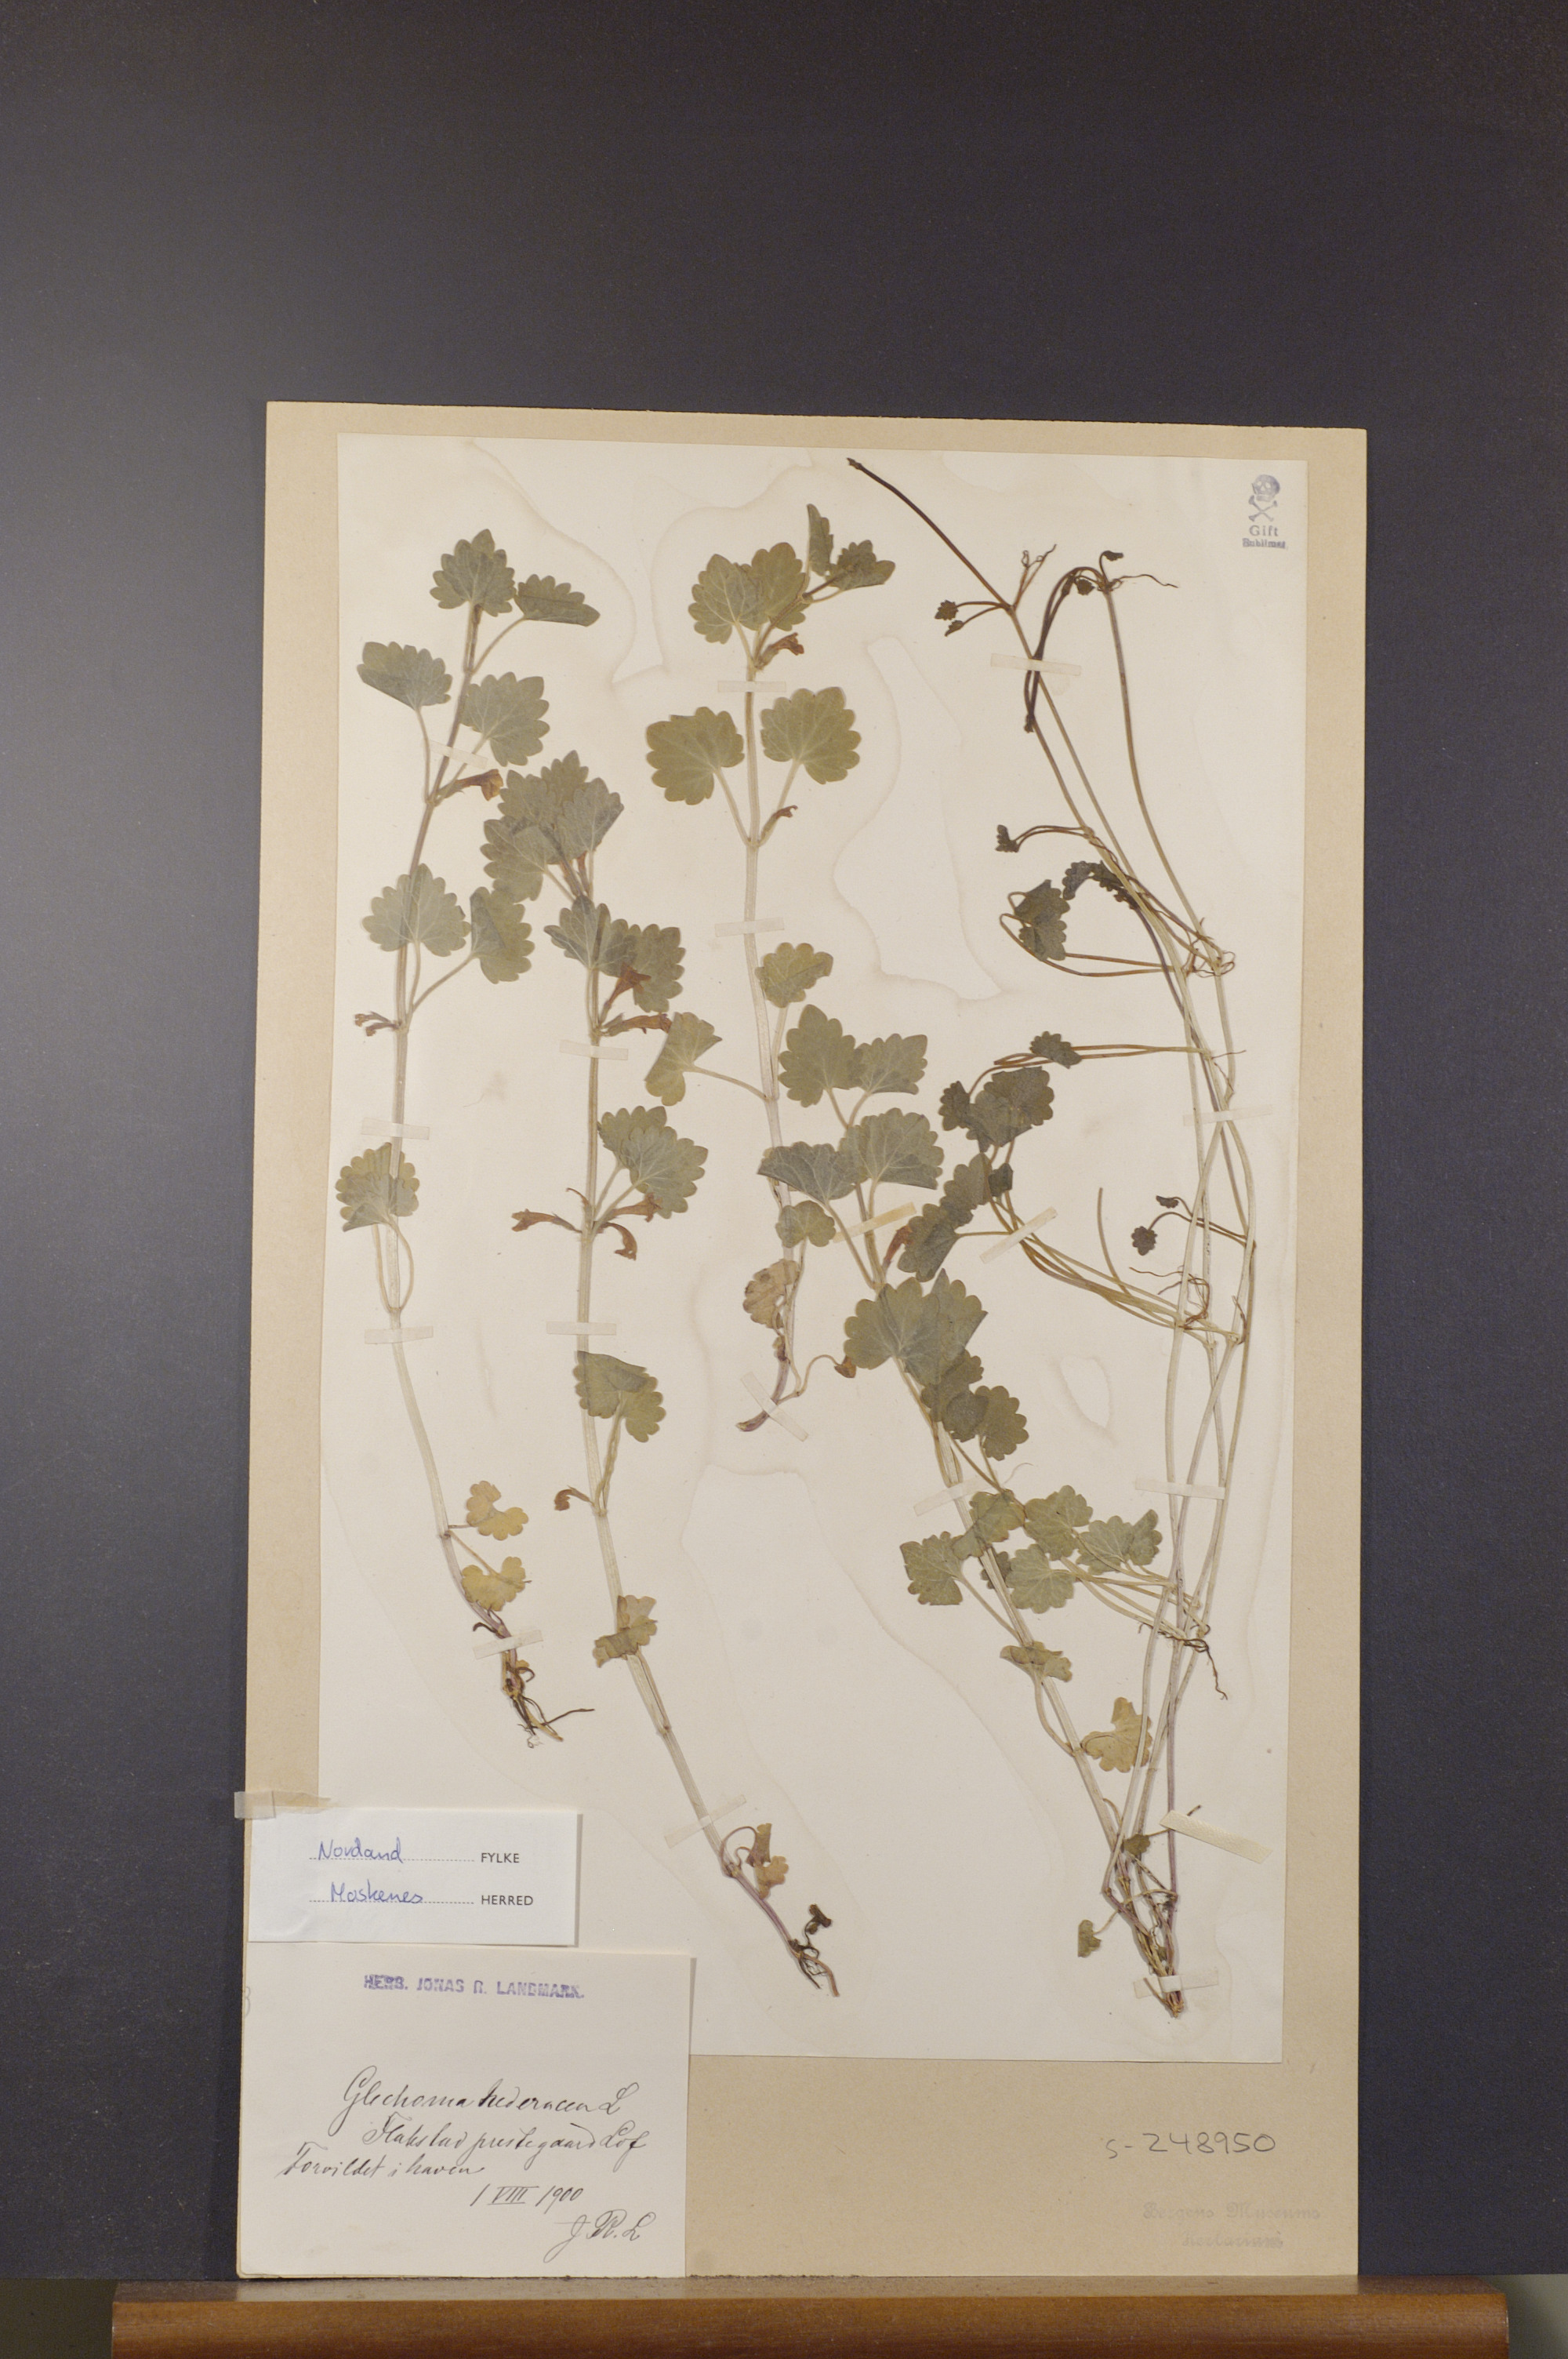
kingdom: Plantae
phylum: Tracheophyta
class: Magnoliopsida
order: Lamiales
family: Lamiaceae
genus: Glechoma
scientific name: Glechoma hederacea
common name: Ground ivy
